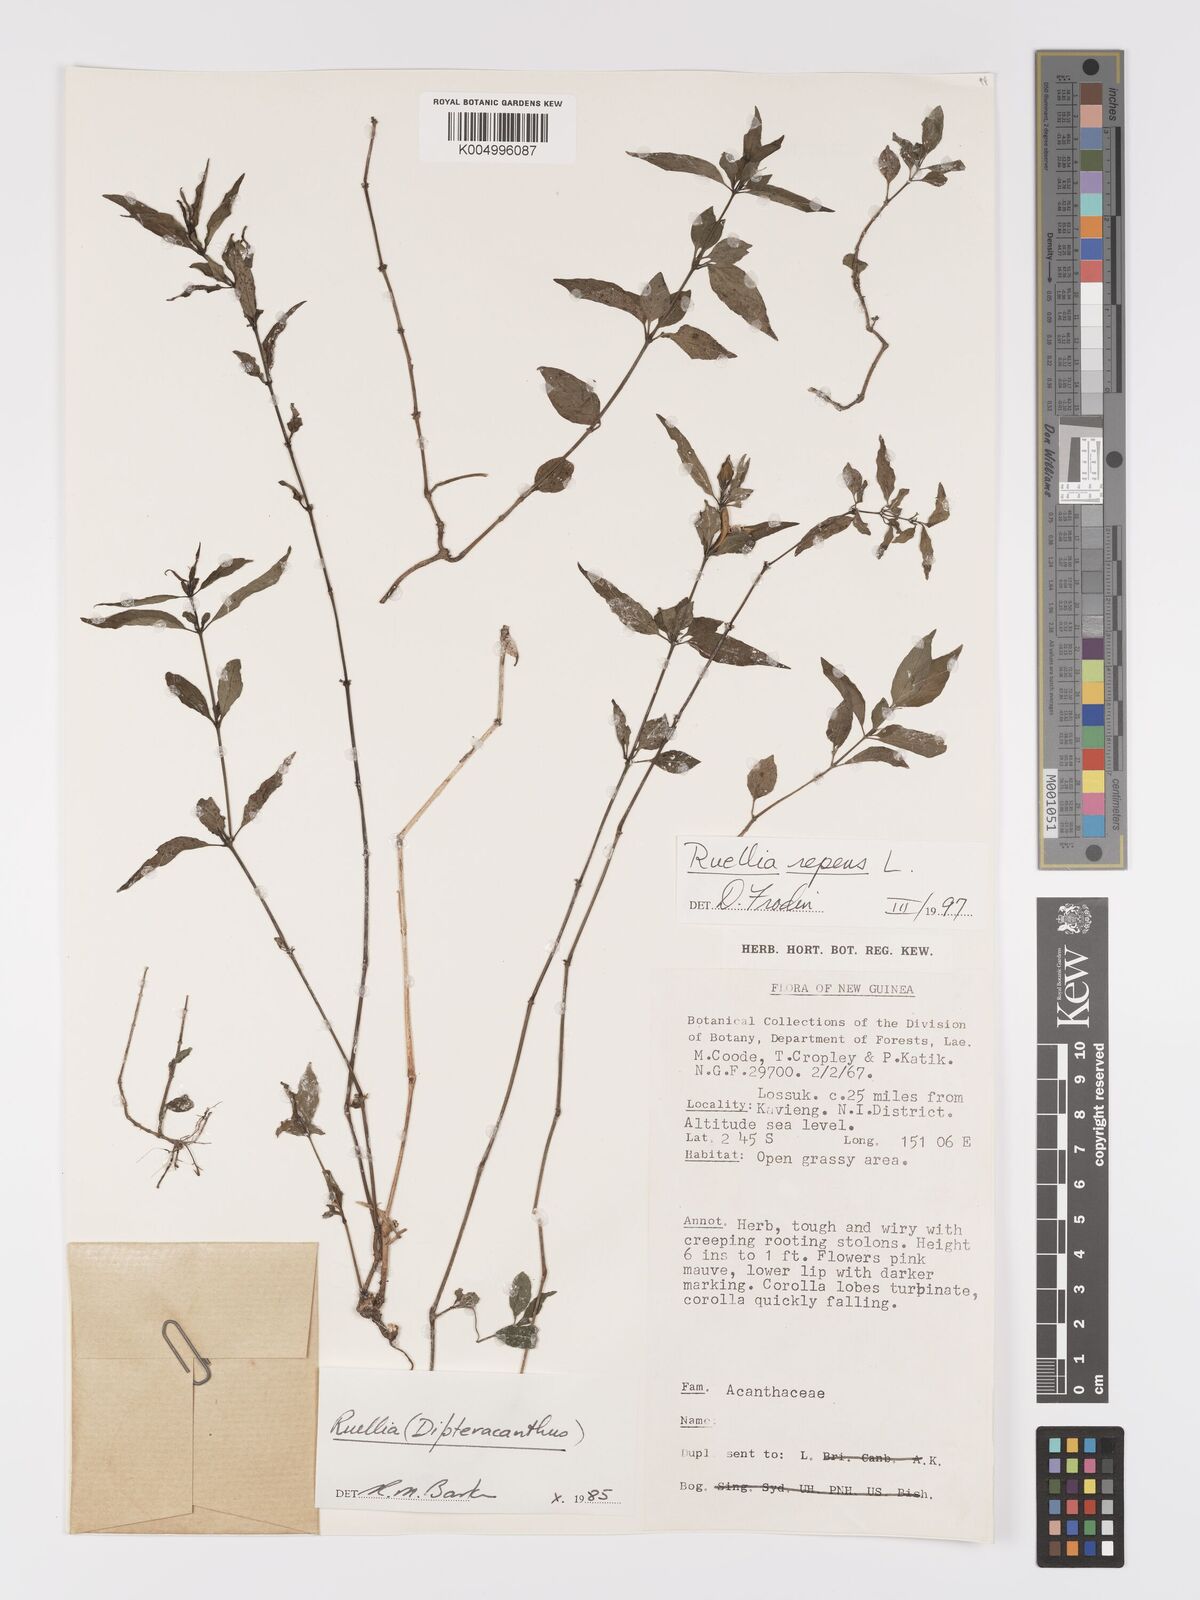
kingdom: Plantae
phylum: Tracheophyta
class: Magnoliopsida
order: Lamiales
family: Acanthaceae
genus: Ruellia
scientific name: Ruellia
